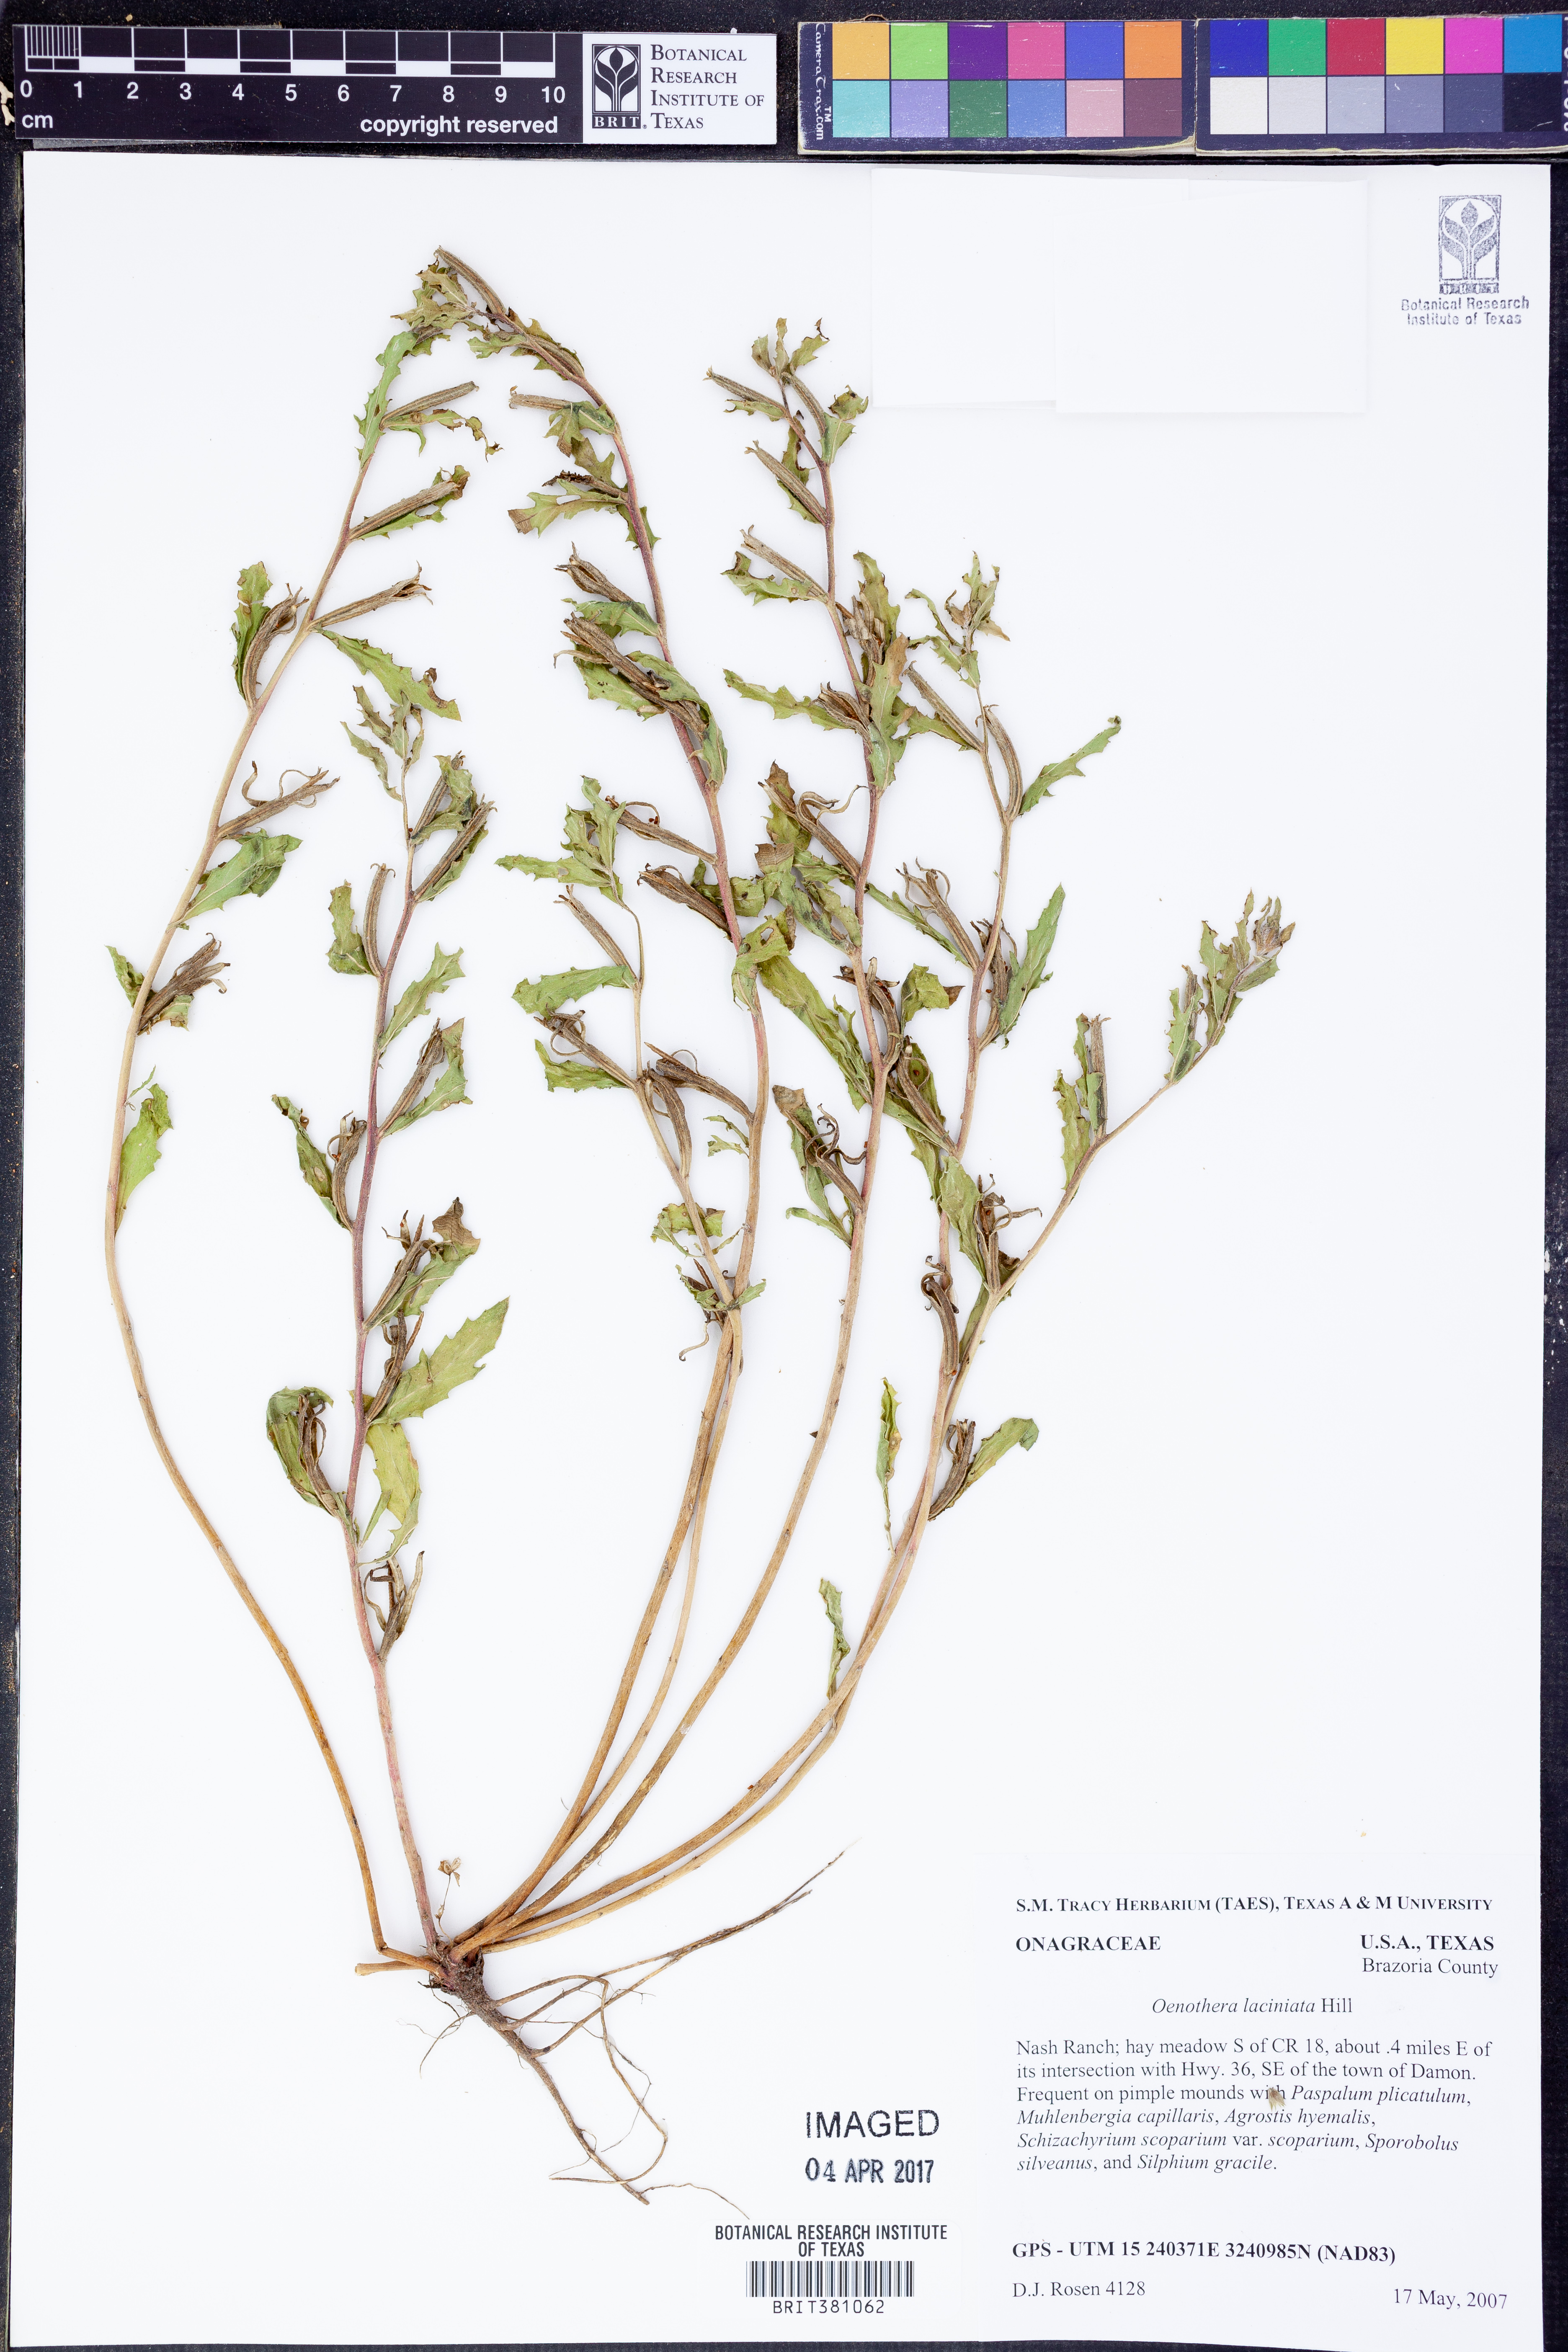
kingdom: Plantae
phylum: Tracheophyta
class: Magnoliopsida
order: Myrtales
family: Onagraceae
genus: Oenothera
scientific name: Oenothera laciniata
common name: Cut-leaved evening-primrose
